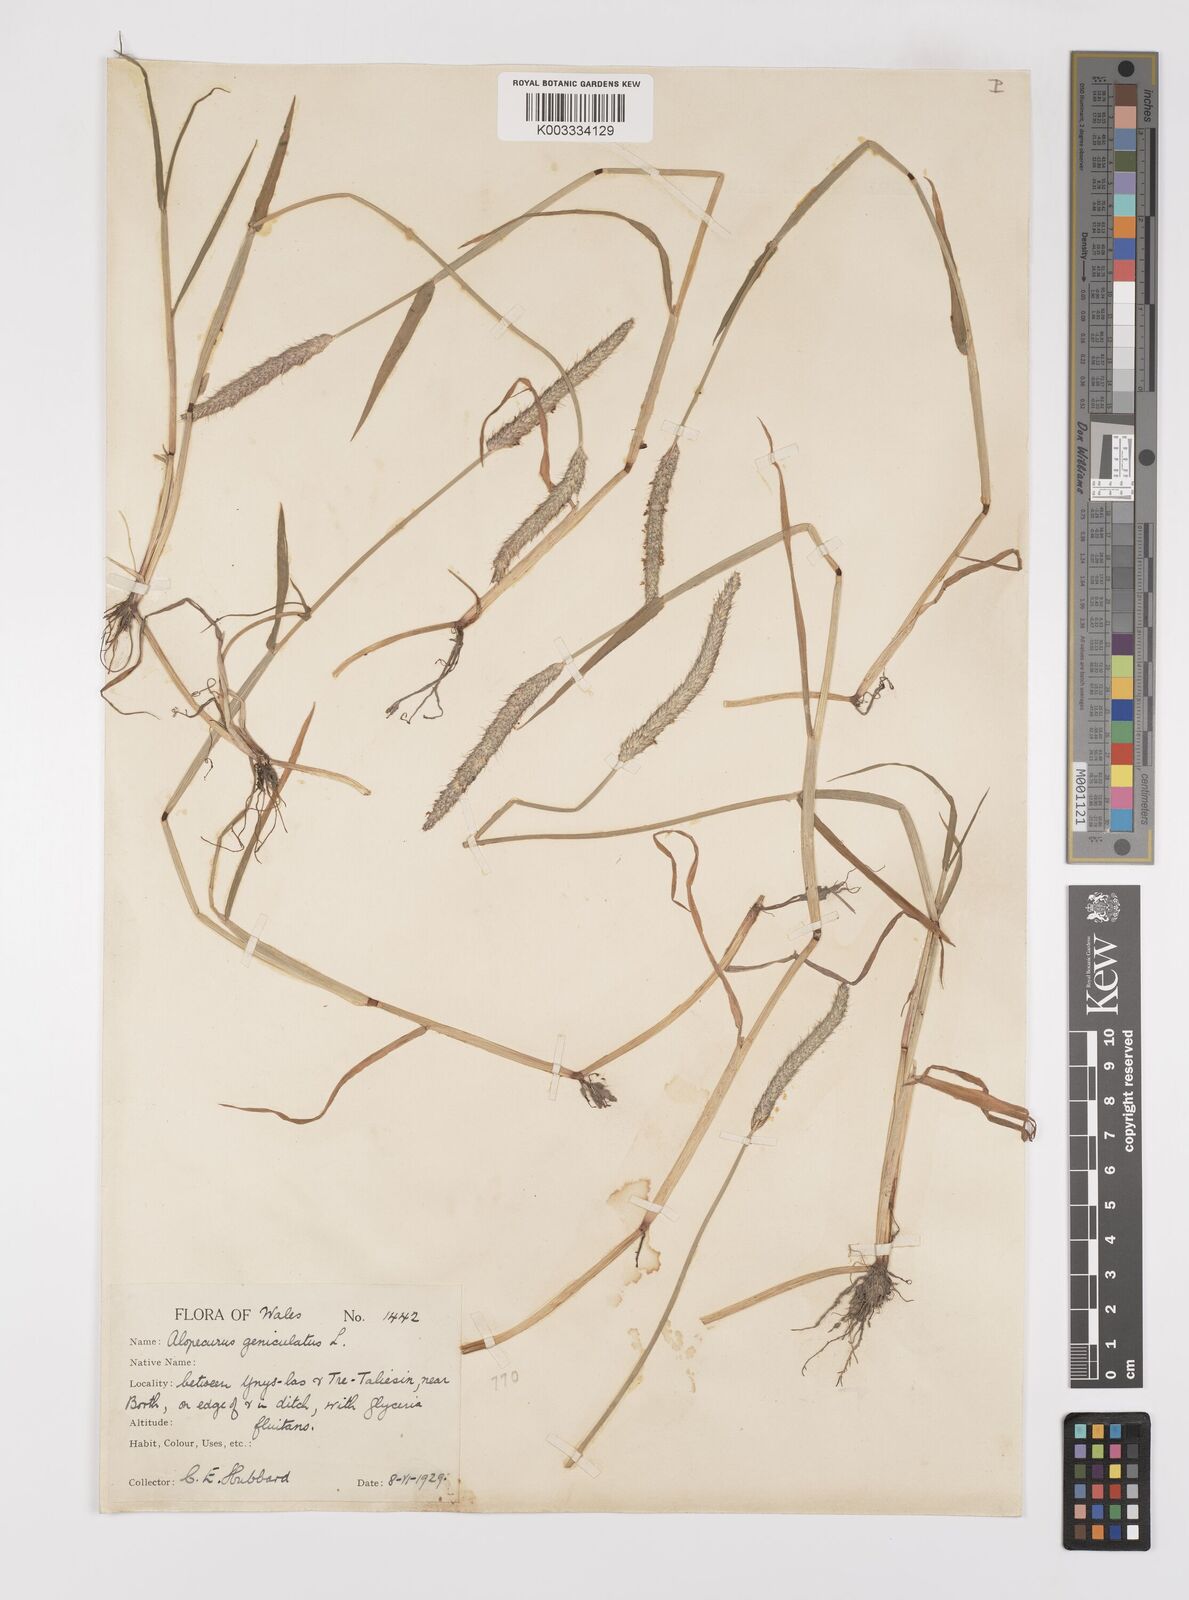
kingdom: Plantae
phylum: Tracheophyta
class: Liliopsida
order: Poales
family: Poaceae
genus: Alopecurus
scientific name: Alopecurus geniculatus
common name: Water foxtail
